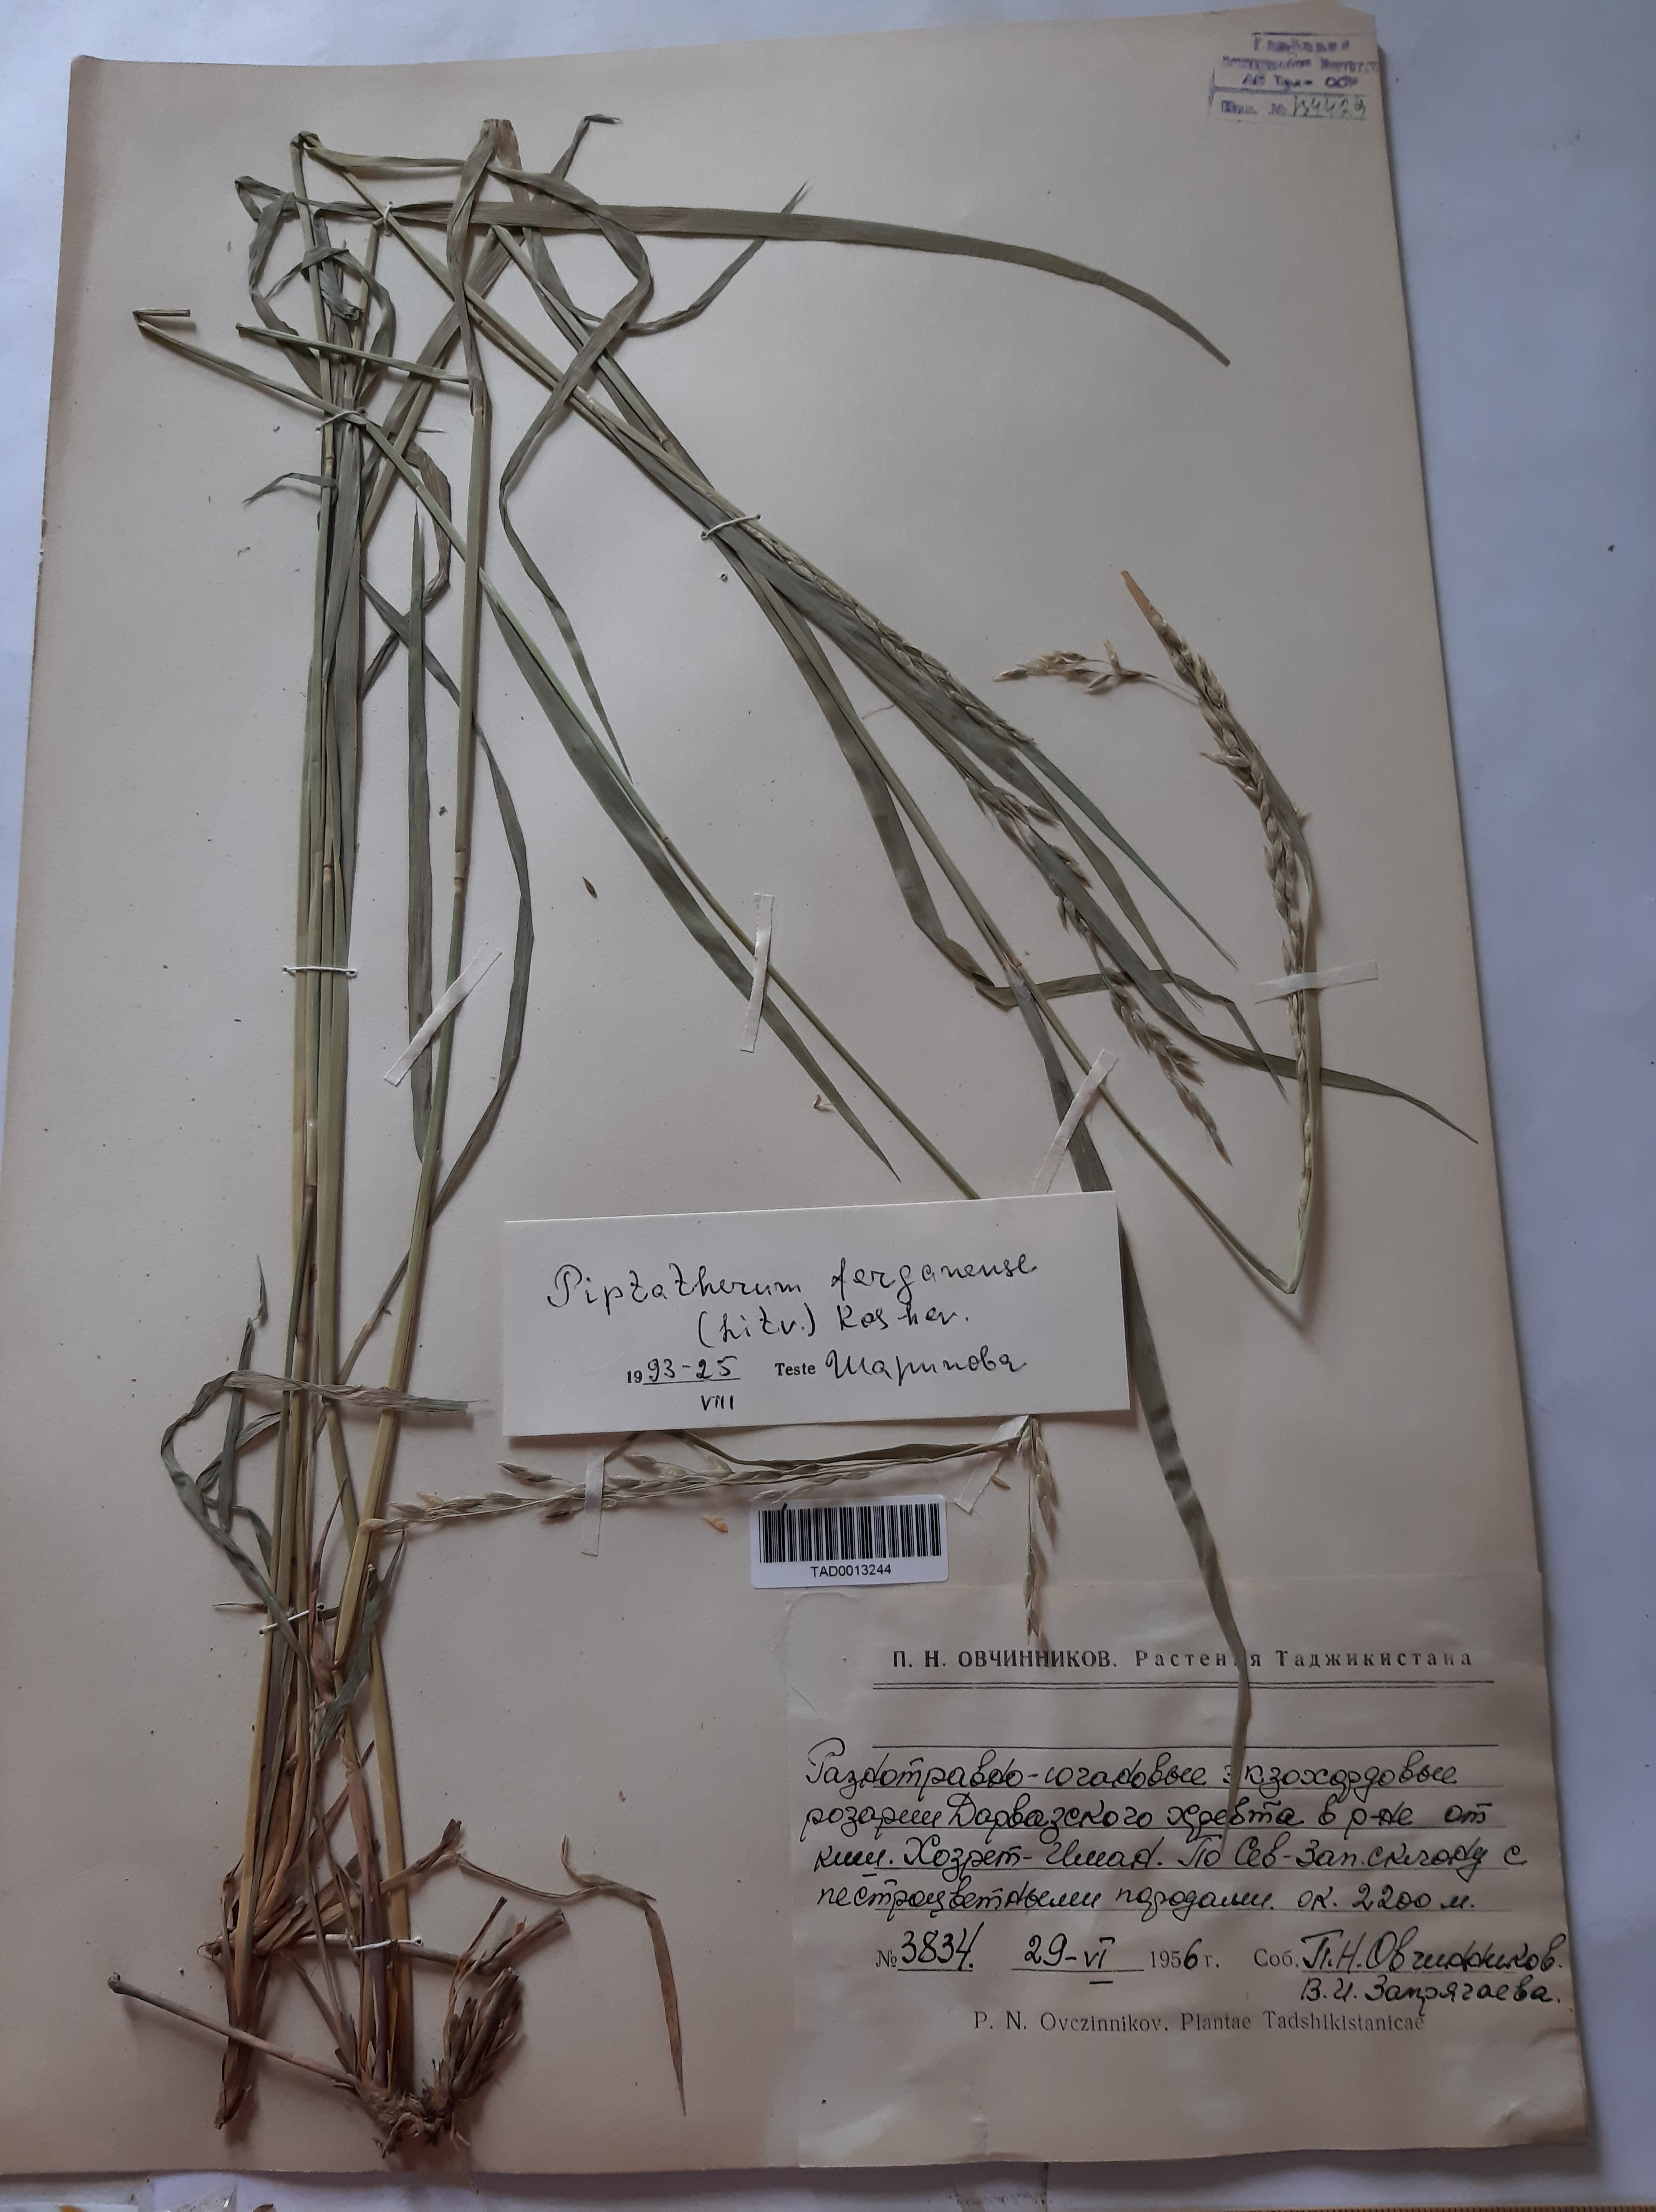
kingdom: Plantae
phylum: Tracheophyta
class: Liliopsida
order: Poales
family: Poaceae
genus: Piptatherum
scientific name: Piptatherum ferganense
